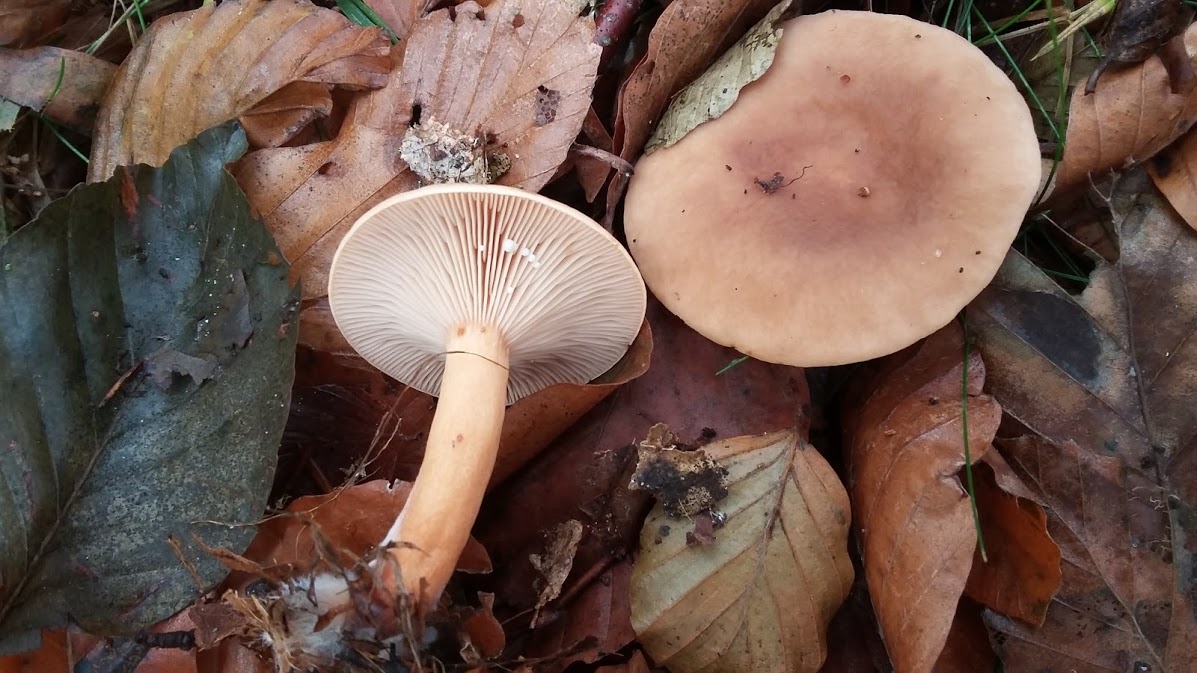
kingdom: Fungi
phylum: Basidiomycota
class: Agaricomycetes
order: Russulales
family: Russulaceae
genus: Lactarius
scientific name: Lactarius subdulcis
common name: sødlig mælkehat
